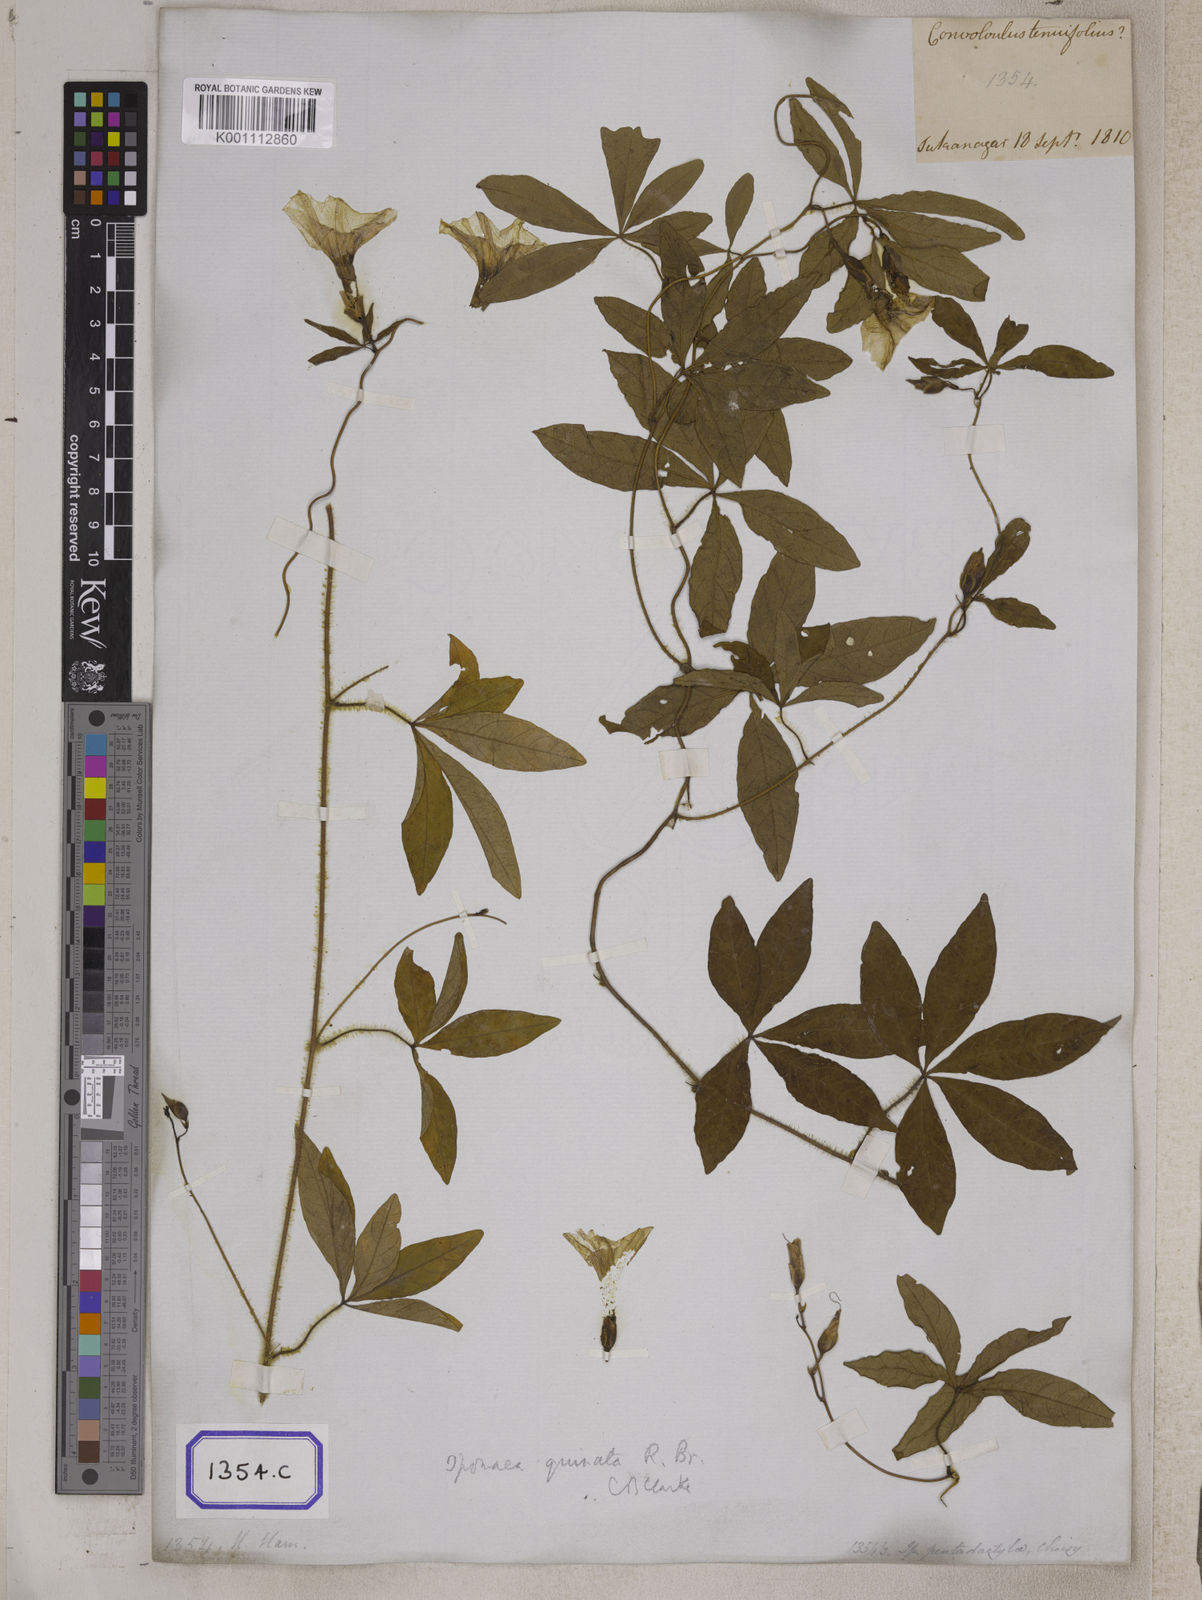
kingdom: Plantae
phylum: Tracheophyta
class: Magnoliopsida
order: Solanales
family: Convolvulaceae
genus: Convolvulus
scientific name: Convolvulus
